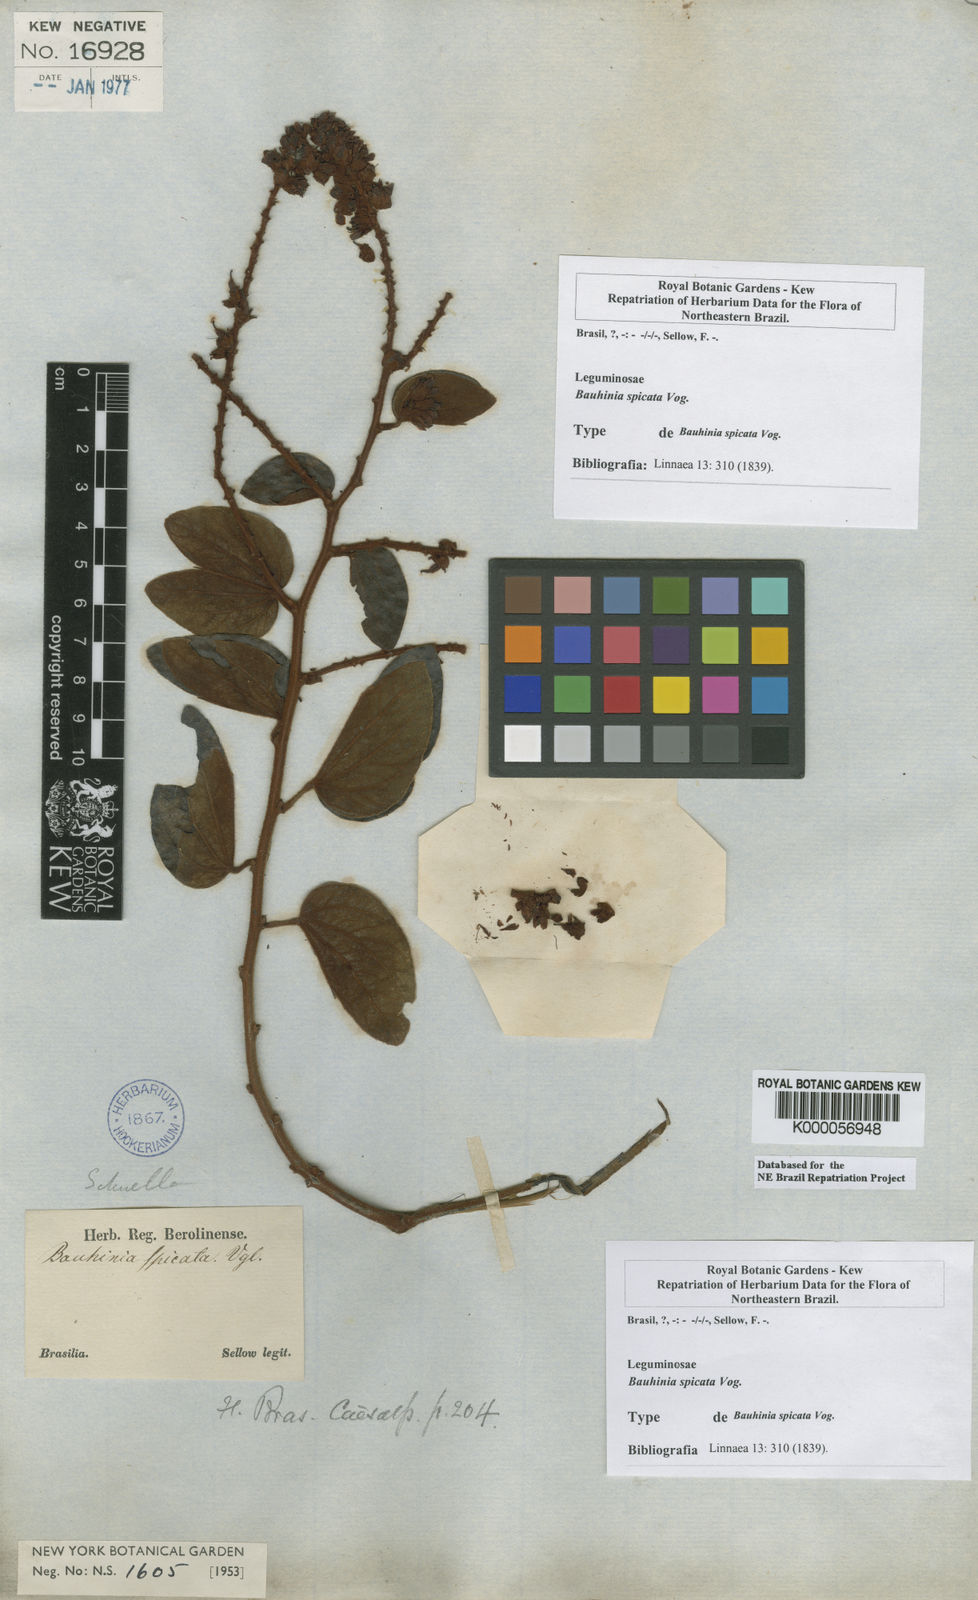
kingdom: Plantae
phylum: Tracheophyta
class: Magnoliopsida
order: Fabales
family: Fabaceae
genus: Schnella
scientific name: Schnella microstachya
